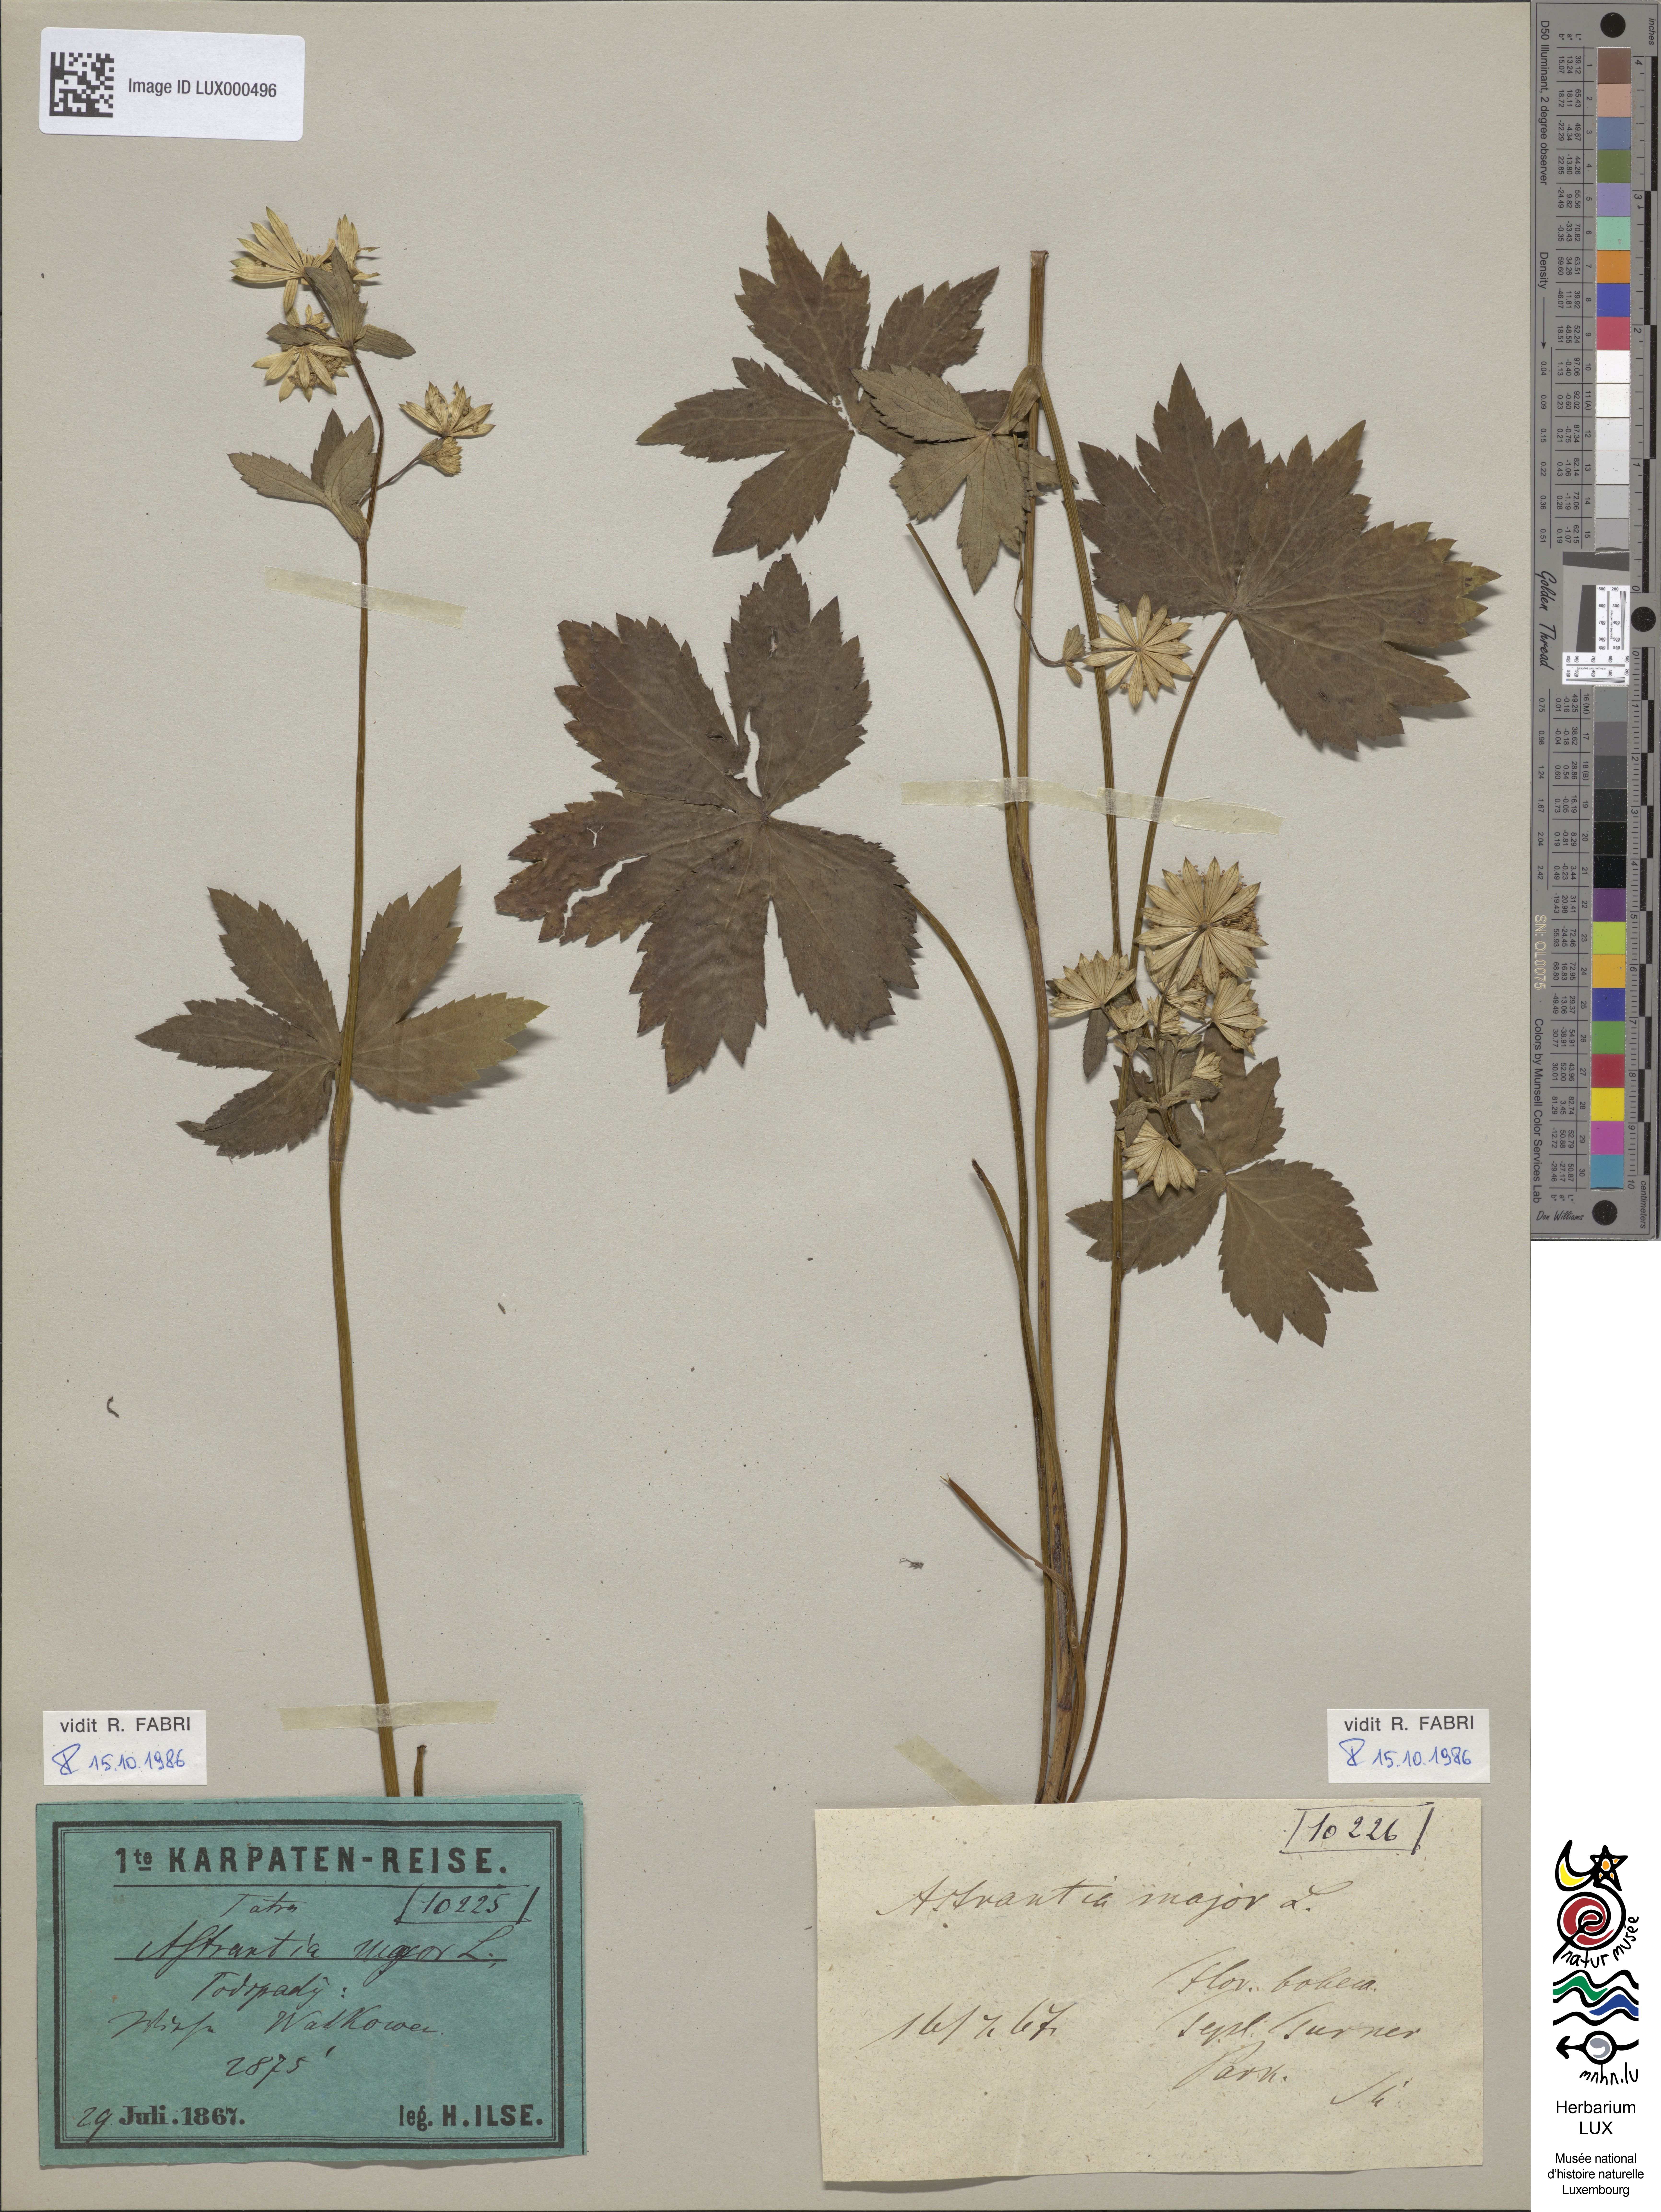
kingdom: Plantae
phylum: Tracheophyta
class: Magnoliopsida
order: Apiales
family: Apiaceae
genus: Astrantia
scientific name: Astrantia major
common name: Greater masterwort
